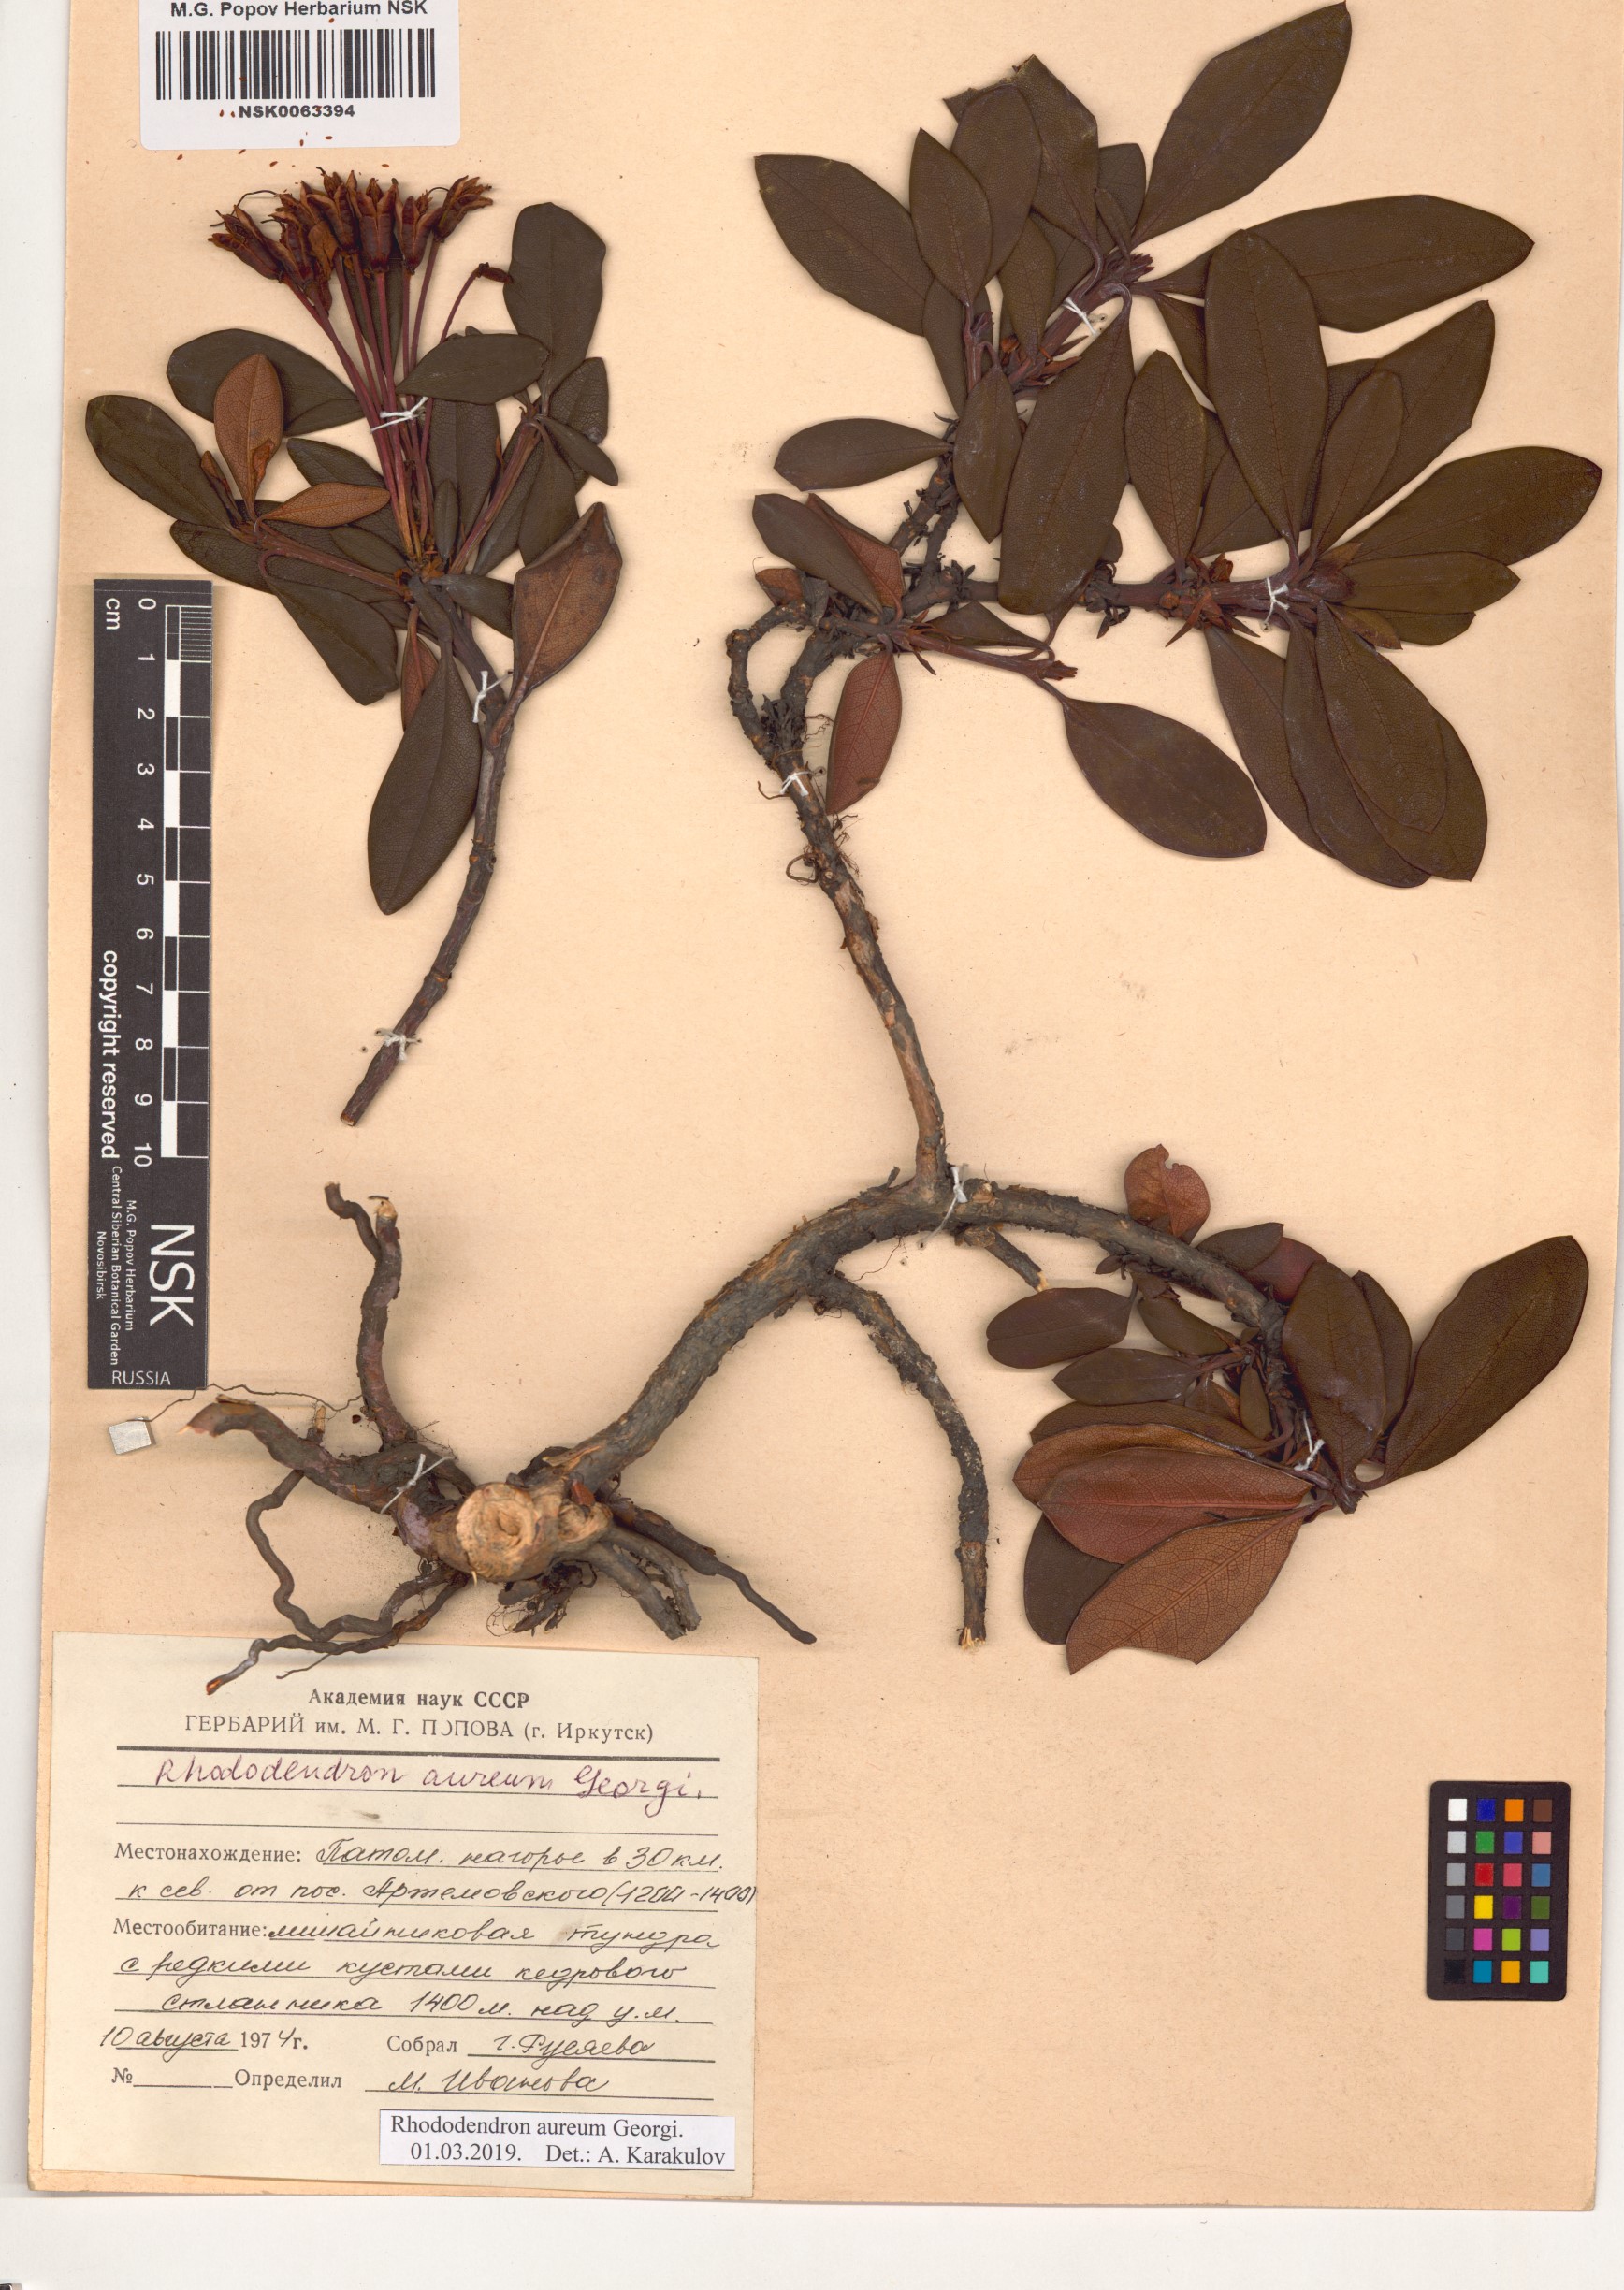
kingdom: Plantae
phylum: Tracheophyta
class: Magnoliopsida
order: Ericales
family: Ericaceae
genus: Rhododendron
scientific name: Rhododendron aureum
